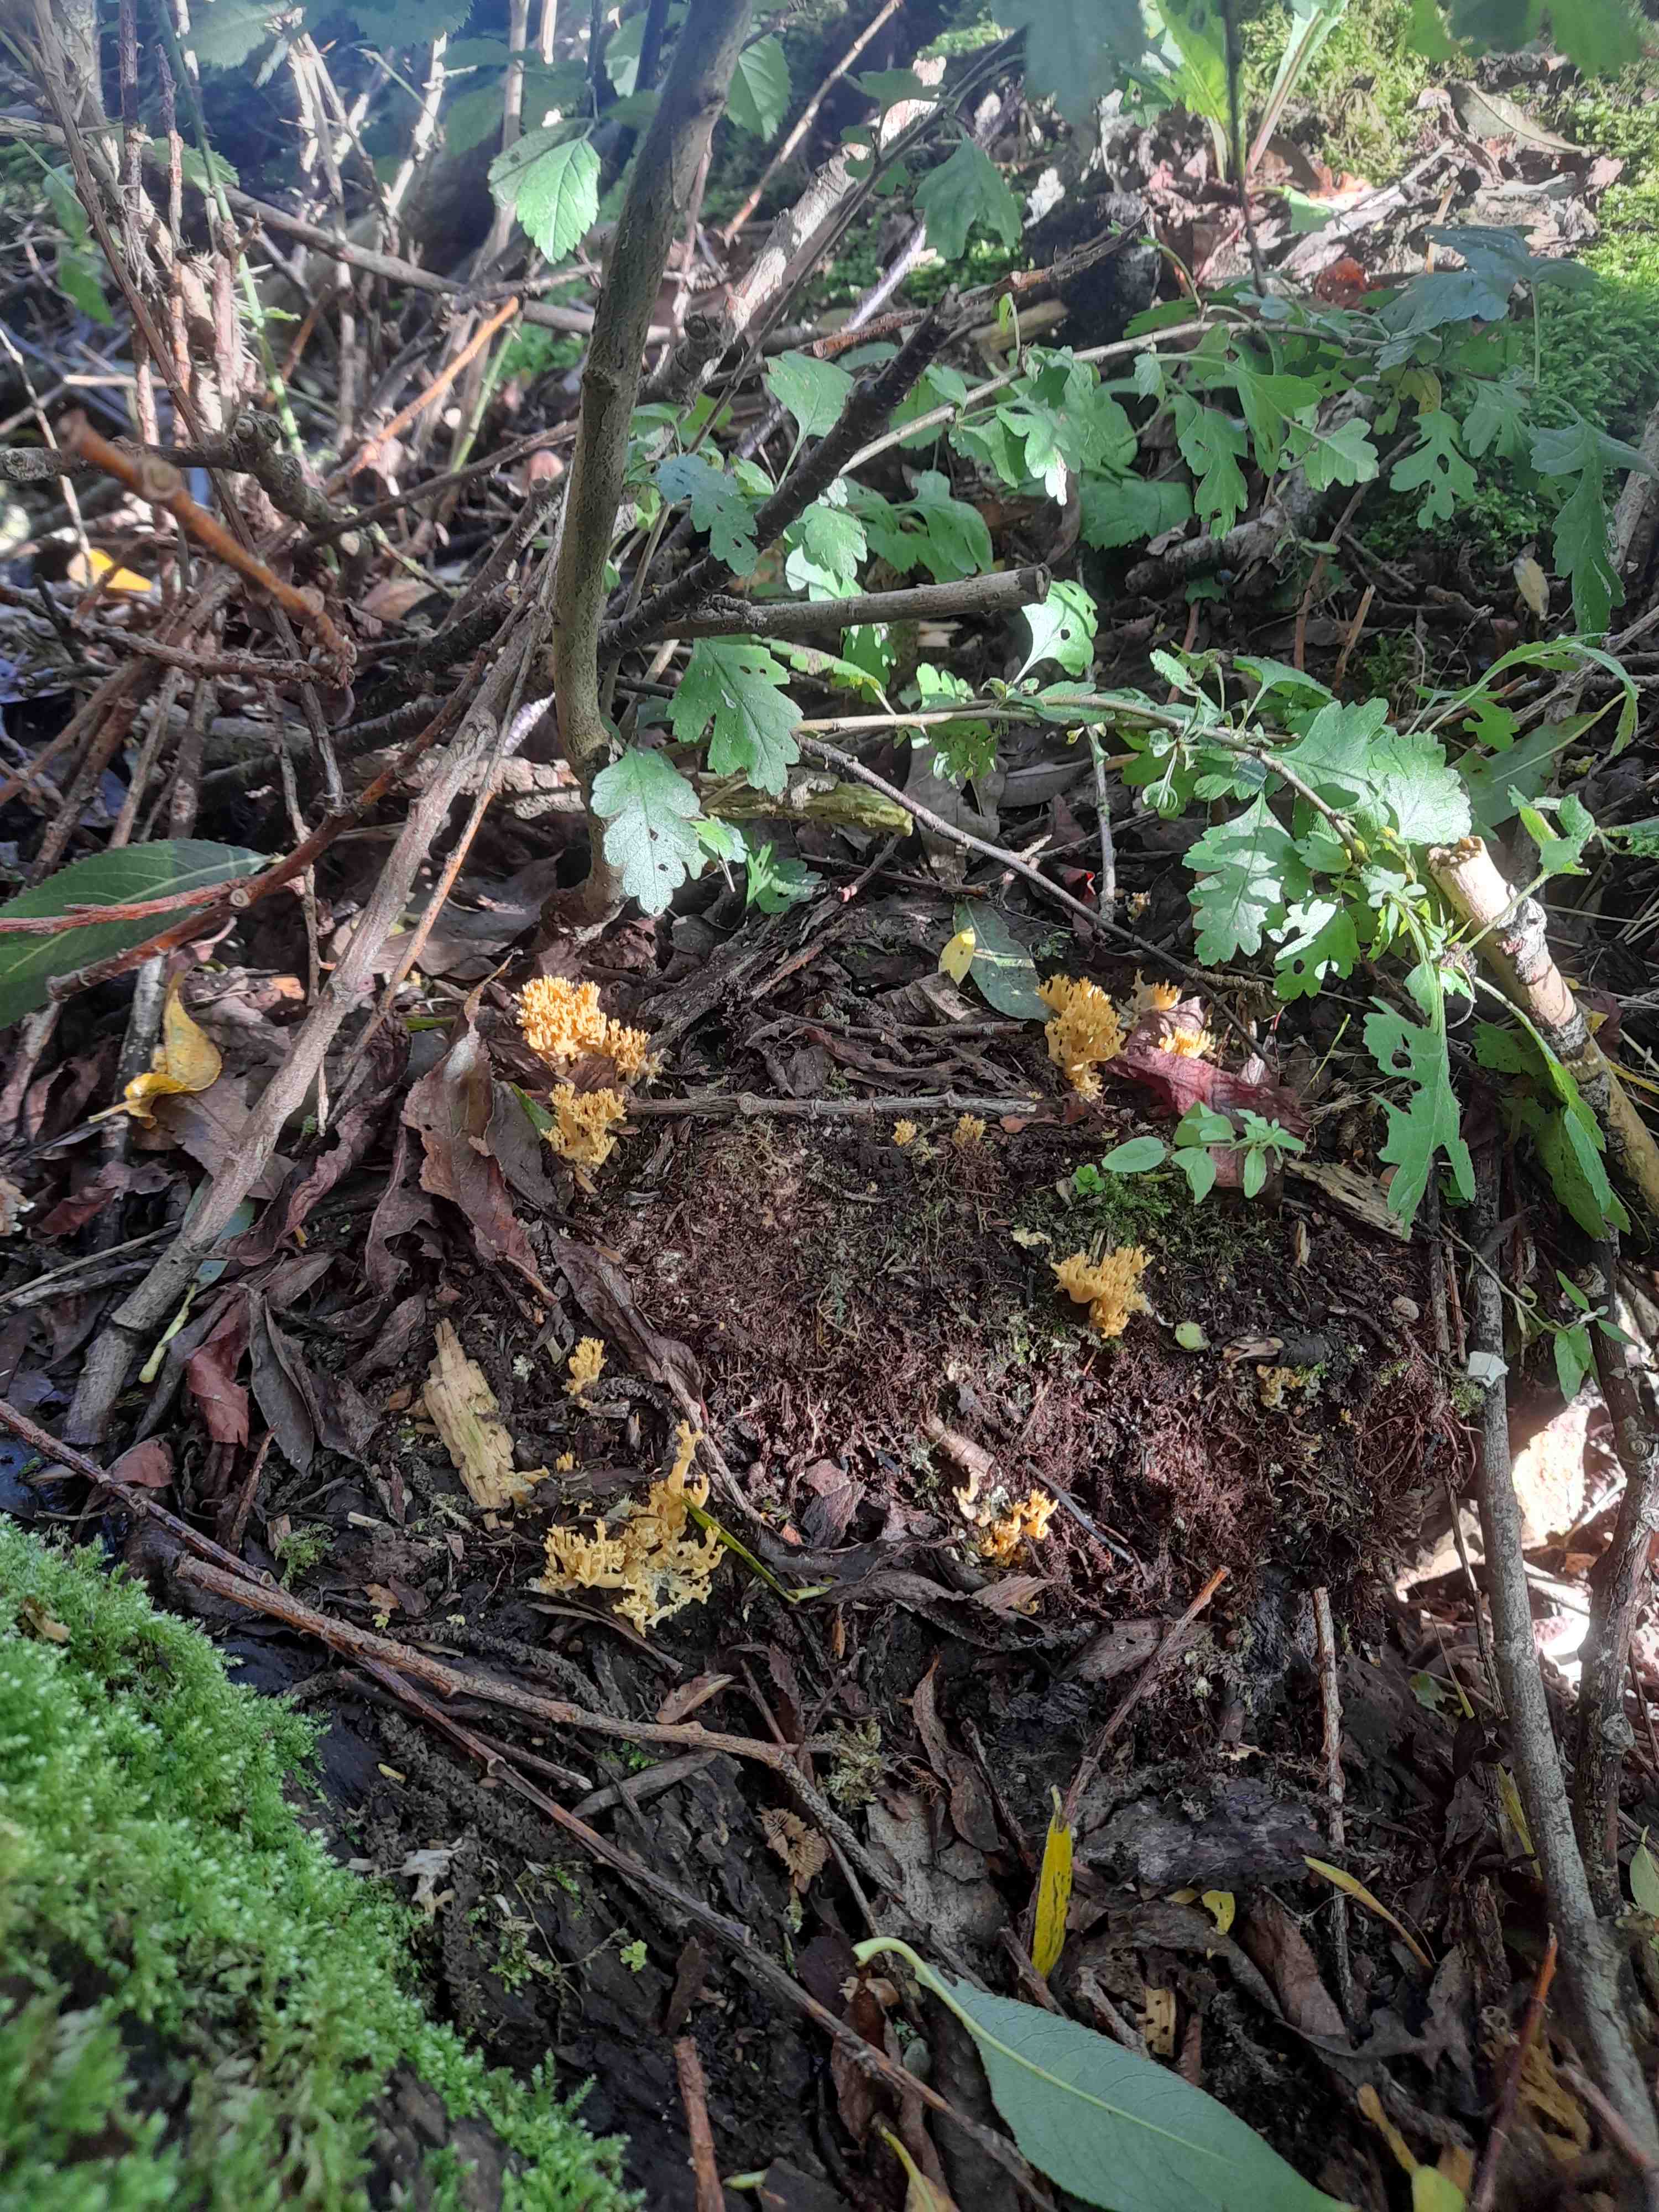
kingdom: Fungi
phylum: Basidiomycota
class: Agaricomycetes
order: Gomphales
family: Gomphaceae
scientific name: Gomphaceae
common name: køllekantarelfamilien
